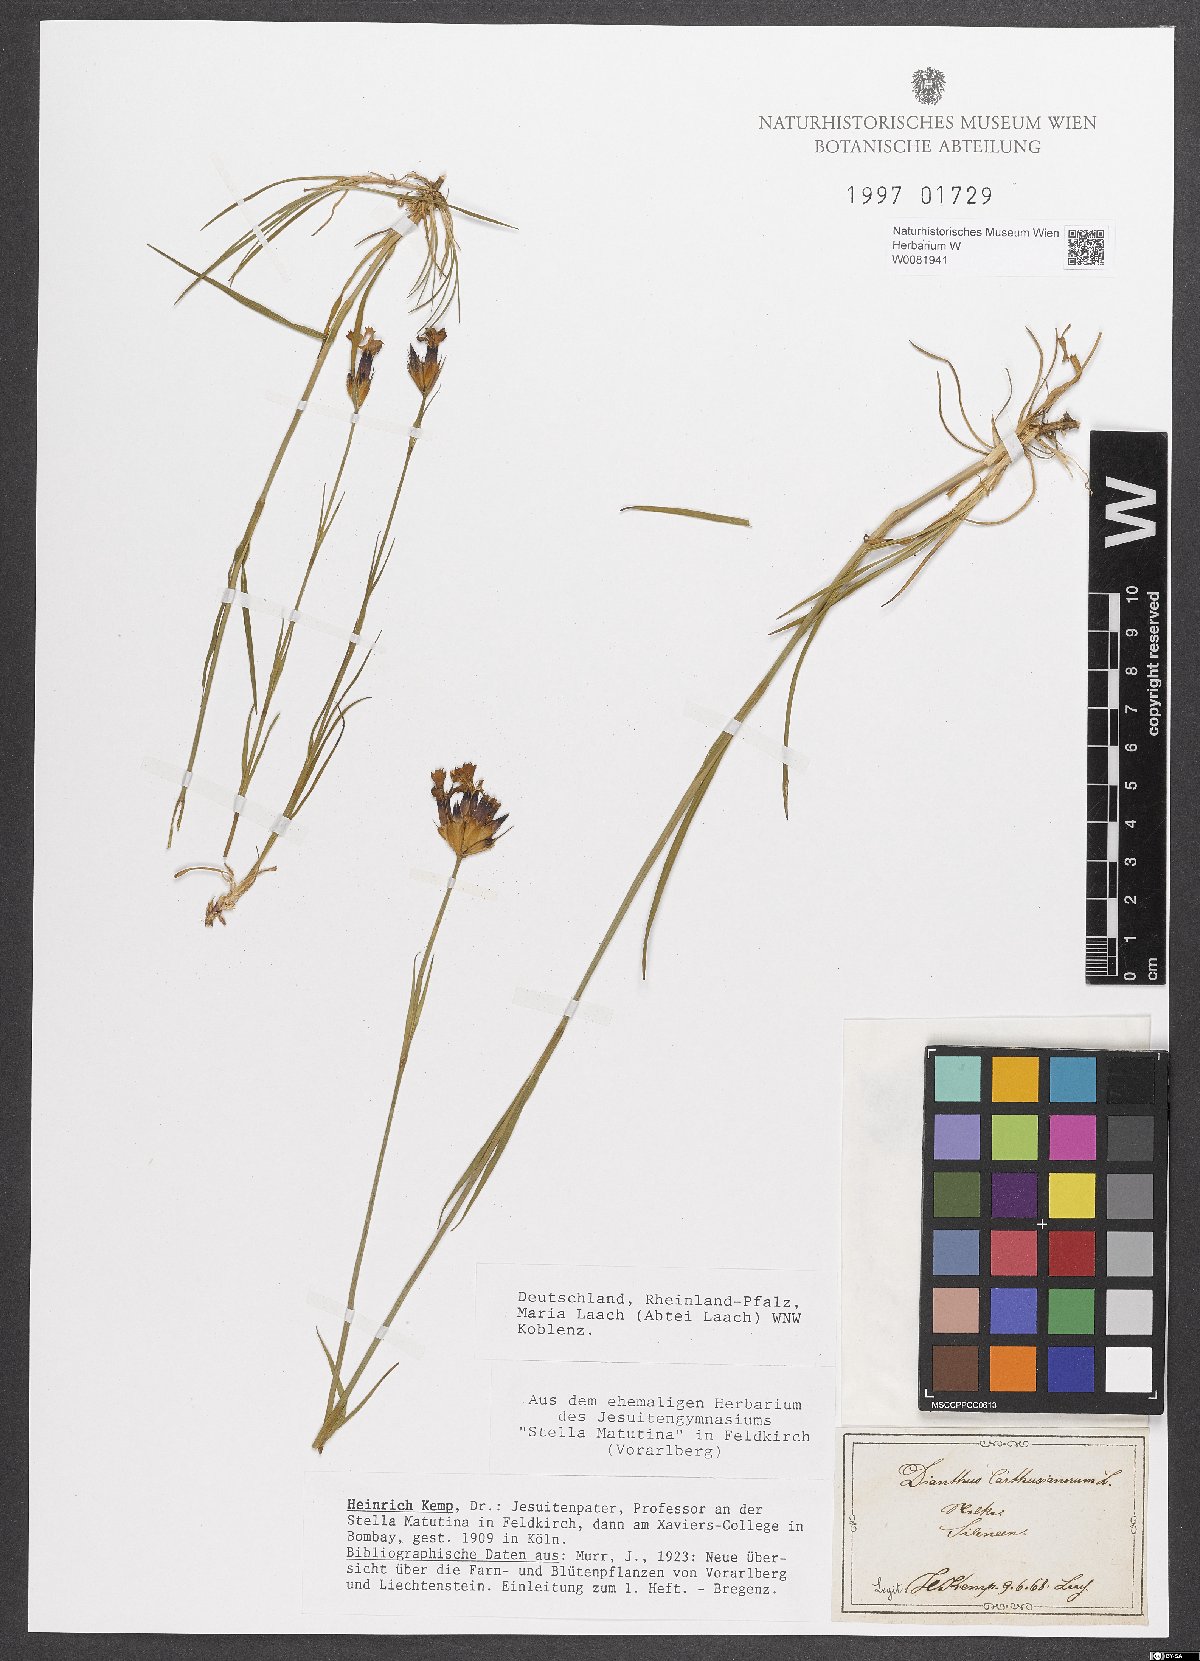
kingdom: Plantae
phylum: Tracheophyta
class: Magnoliopsida
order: Caryophyllales
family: Caryophyllaceae
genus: Dianthus
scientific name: Dianthus carthusianorum
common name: Carthusian pink
